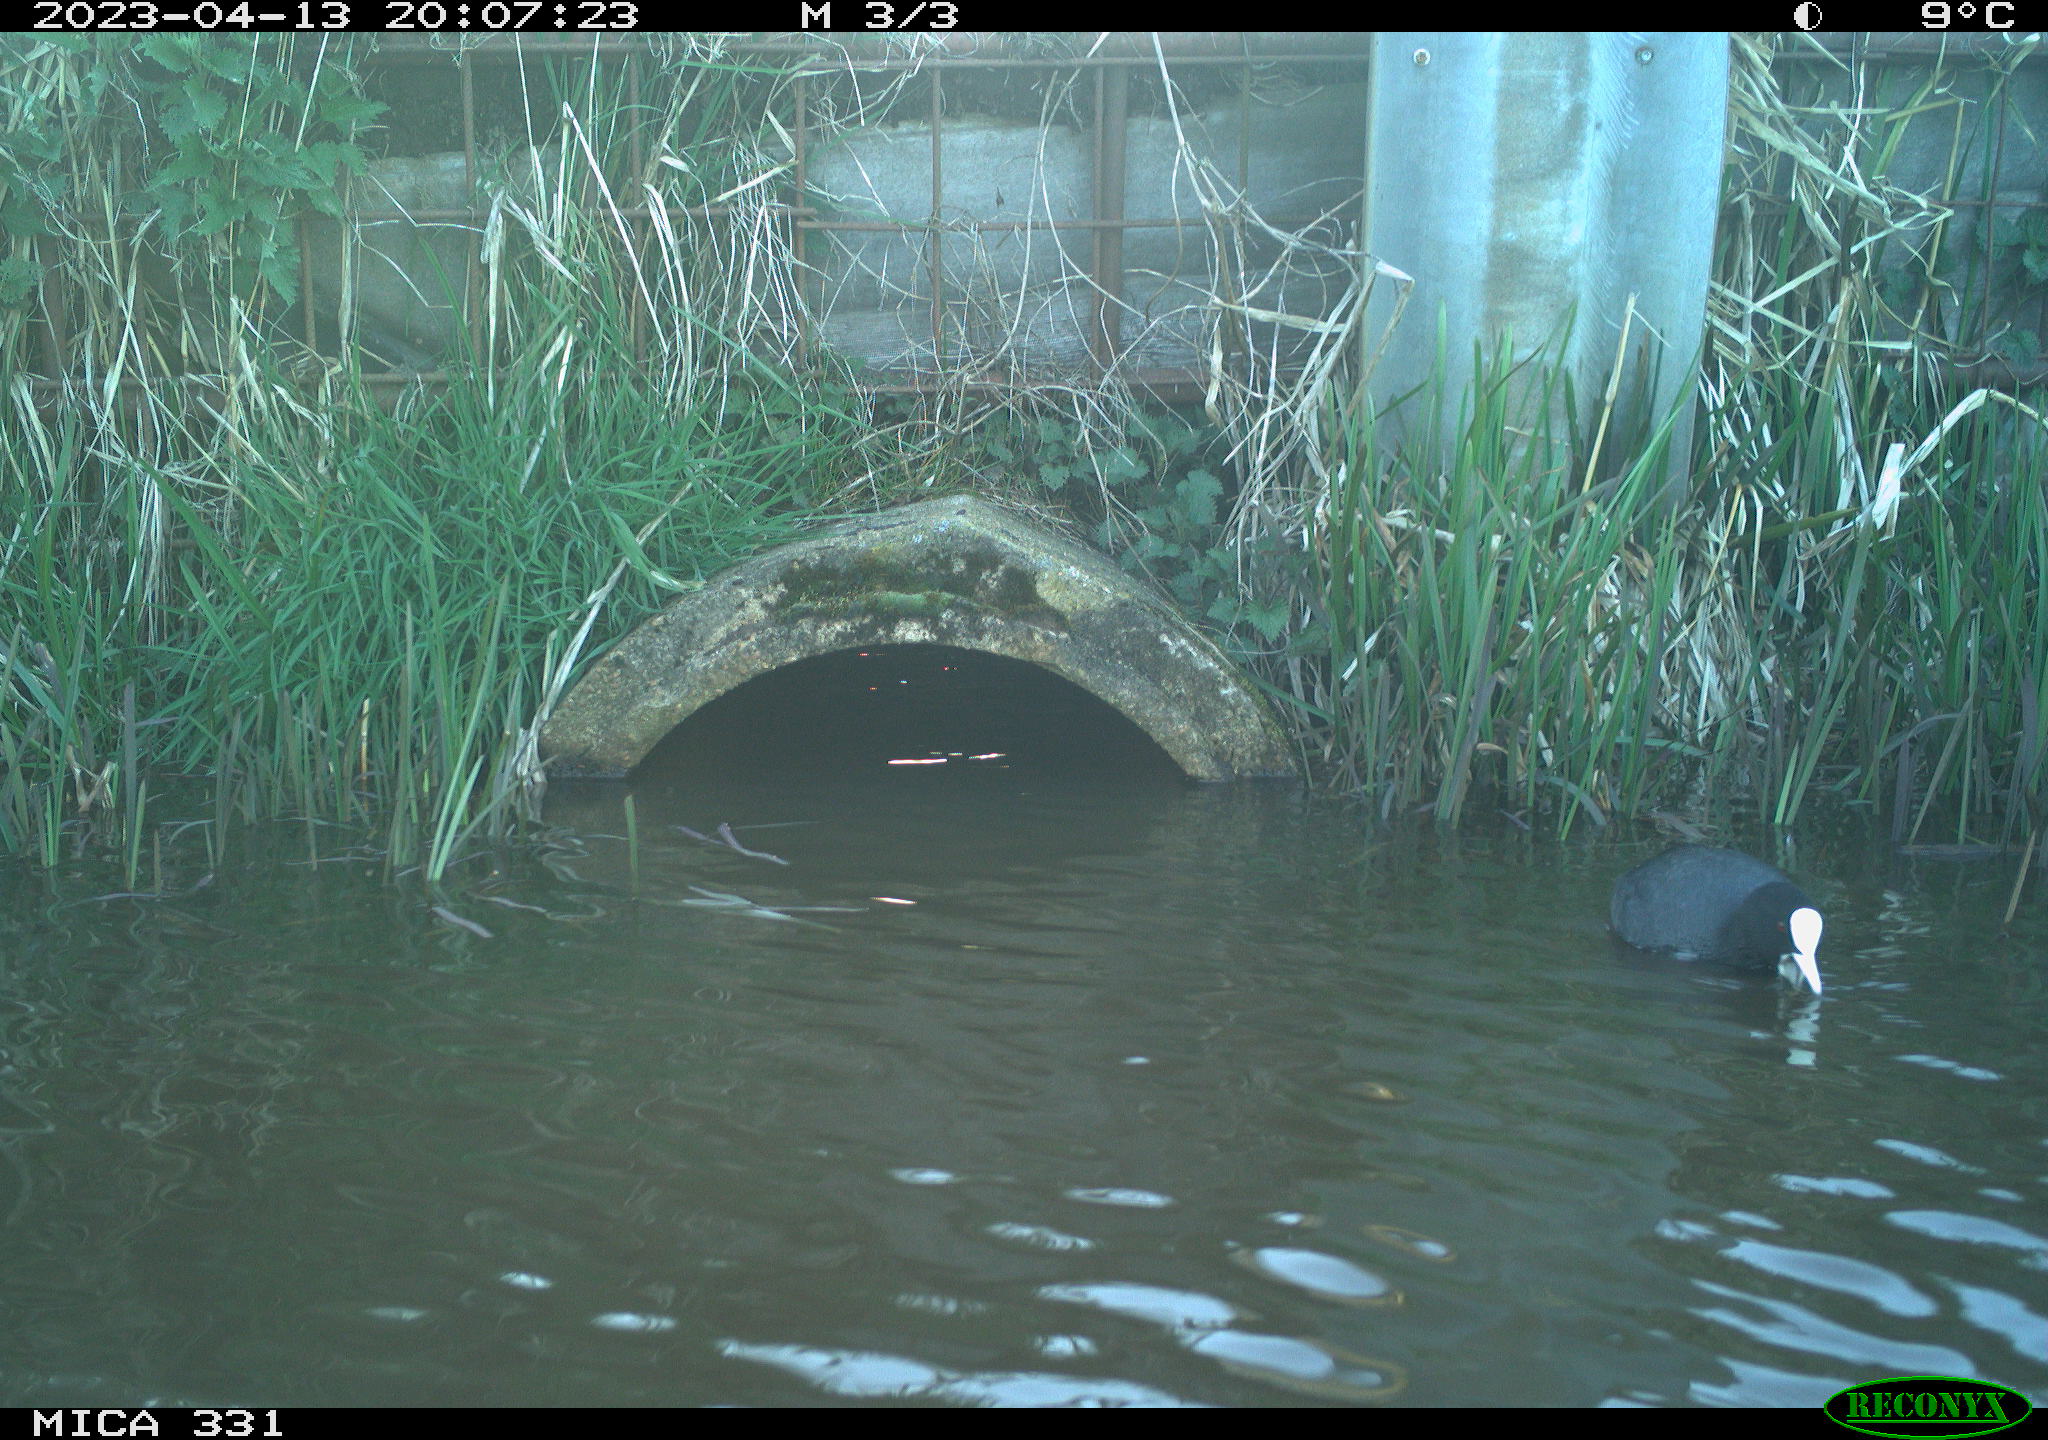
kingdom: Animalia
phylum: Chordata
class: Aves
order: Gruiformes
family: Rallidae
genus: Fulica
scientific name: Fulica atra
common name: Eurasian coot
